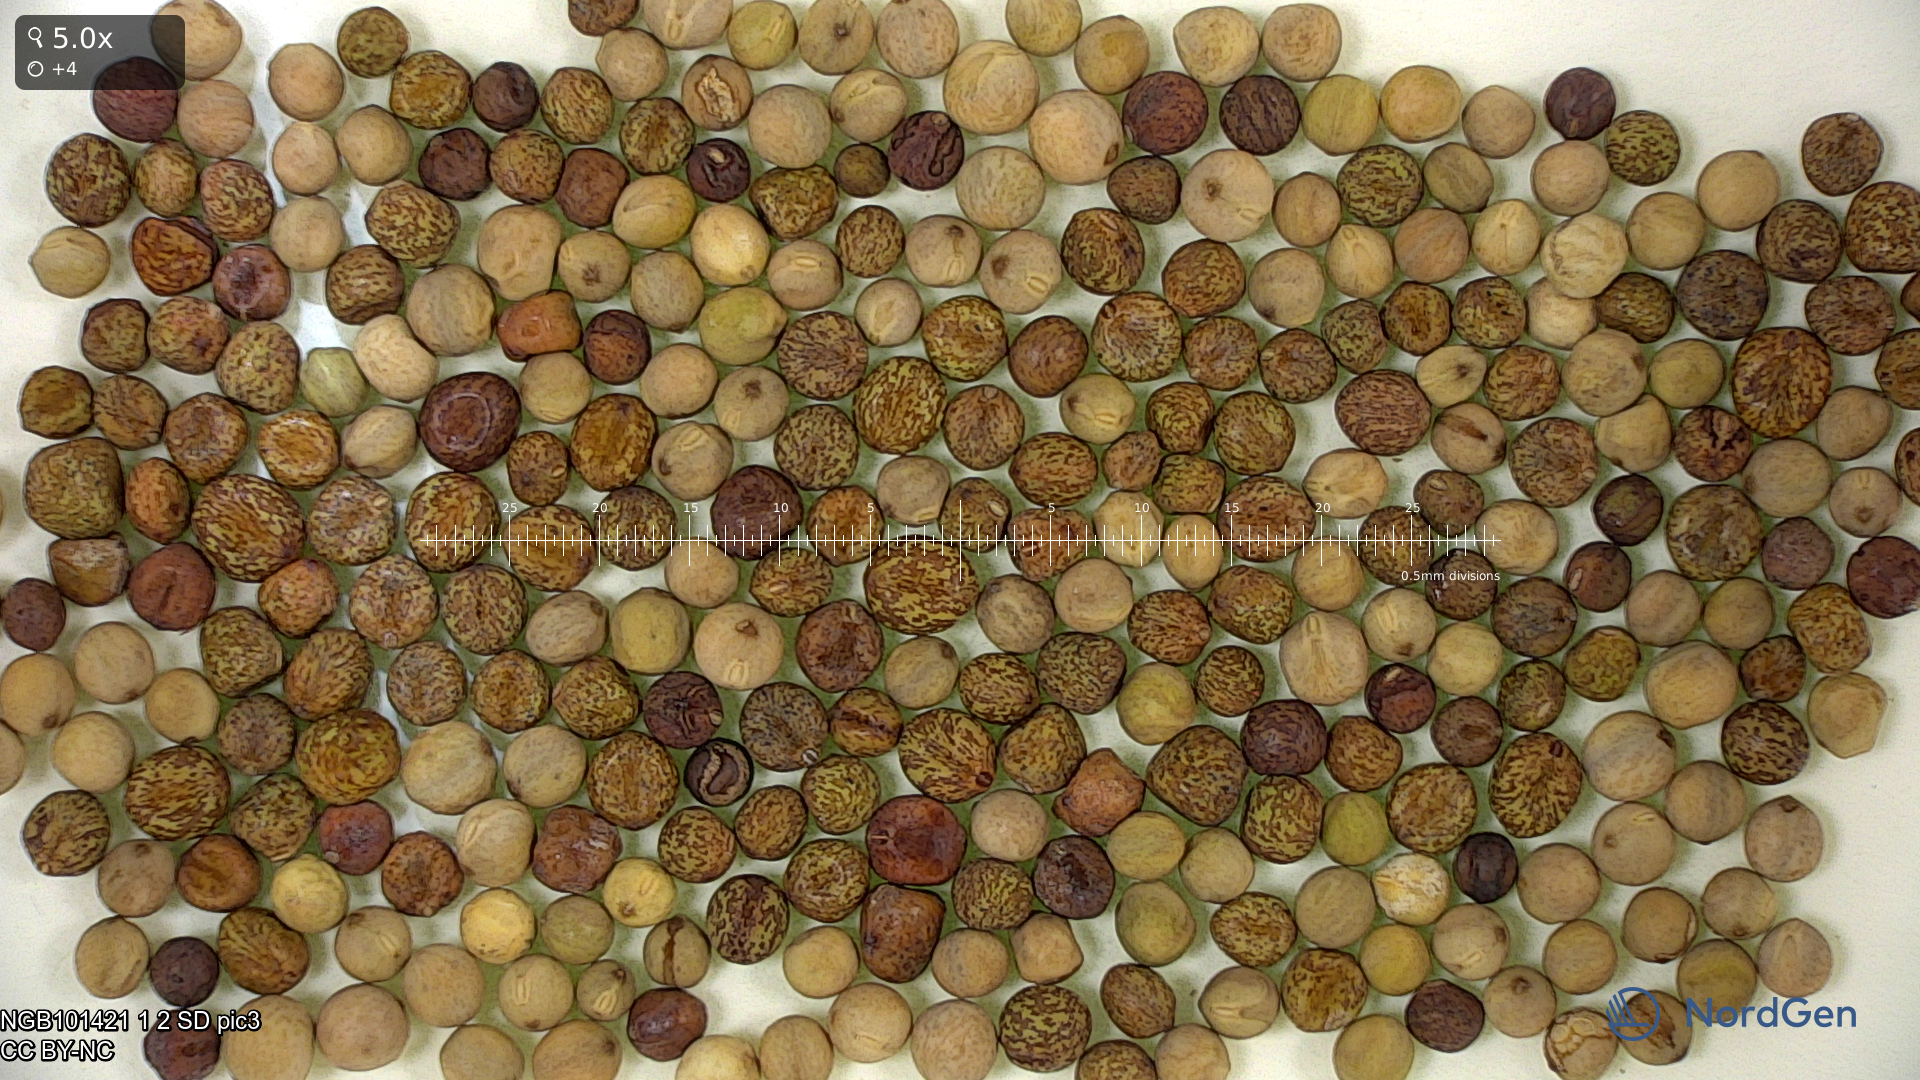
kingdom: Plantae
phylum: Tracheophyta
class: Magnoliopsida
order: Fabales
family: Fabaceae
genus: Lathyrus
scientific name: Lathyrus oleraceus
